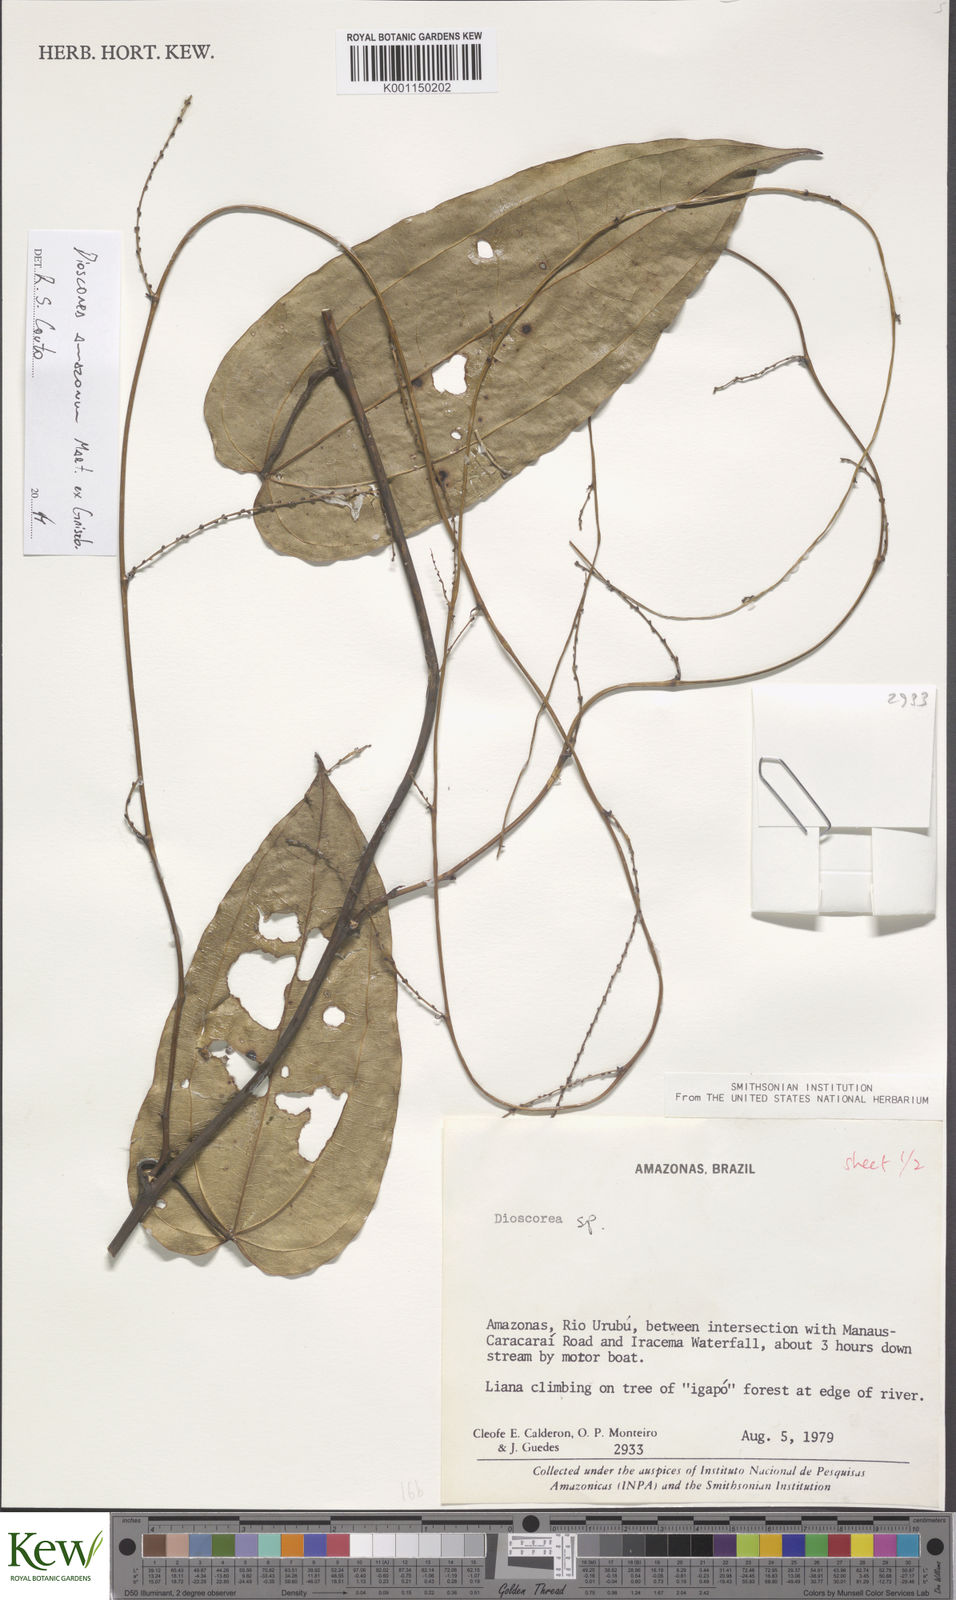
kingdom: Plantae
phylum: Tracheophyta
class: Liliopsida
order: Dioscoreales
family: Dioscoreaceae
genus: Dioscorea
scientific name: Dioscorea amazonum
